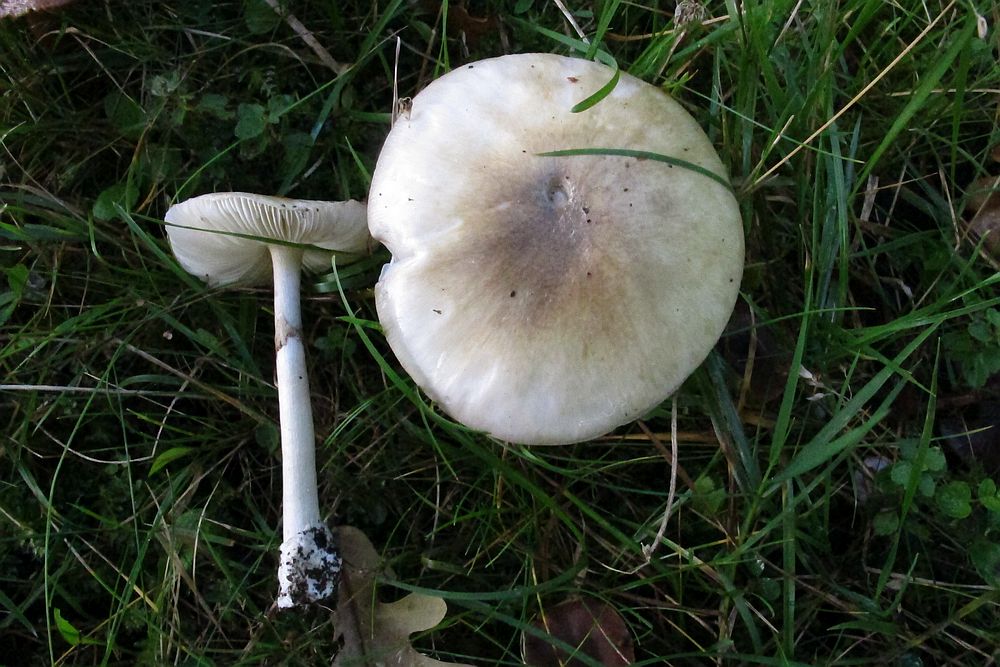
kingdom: Fungi
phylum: Basidiomycota
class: Agaricomycetes
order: Agaricales
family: Amanitaceae
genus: Amanita
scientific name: Amanita phalloides
